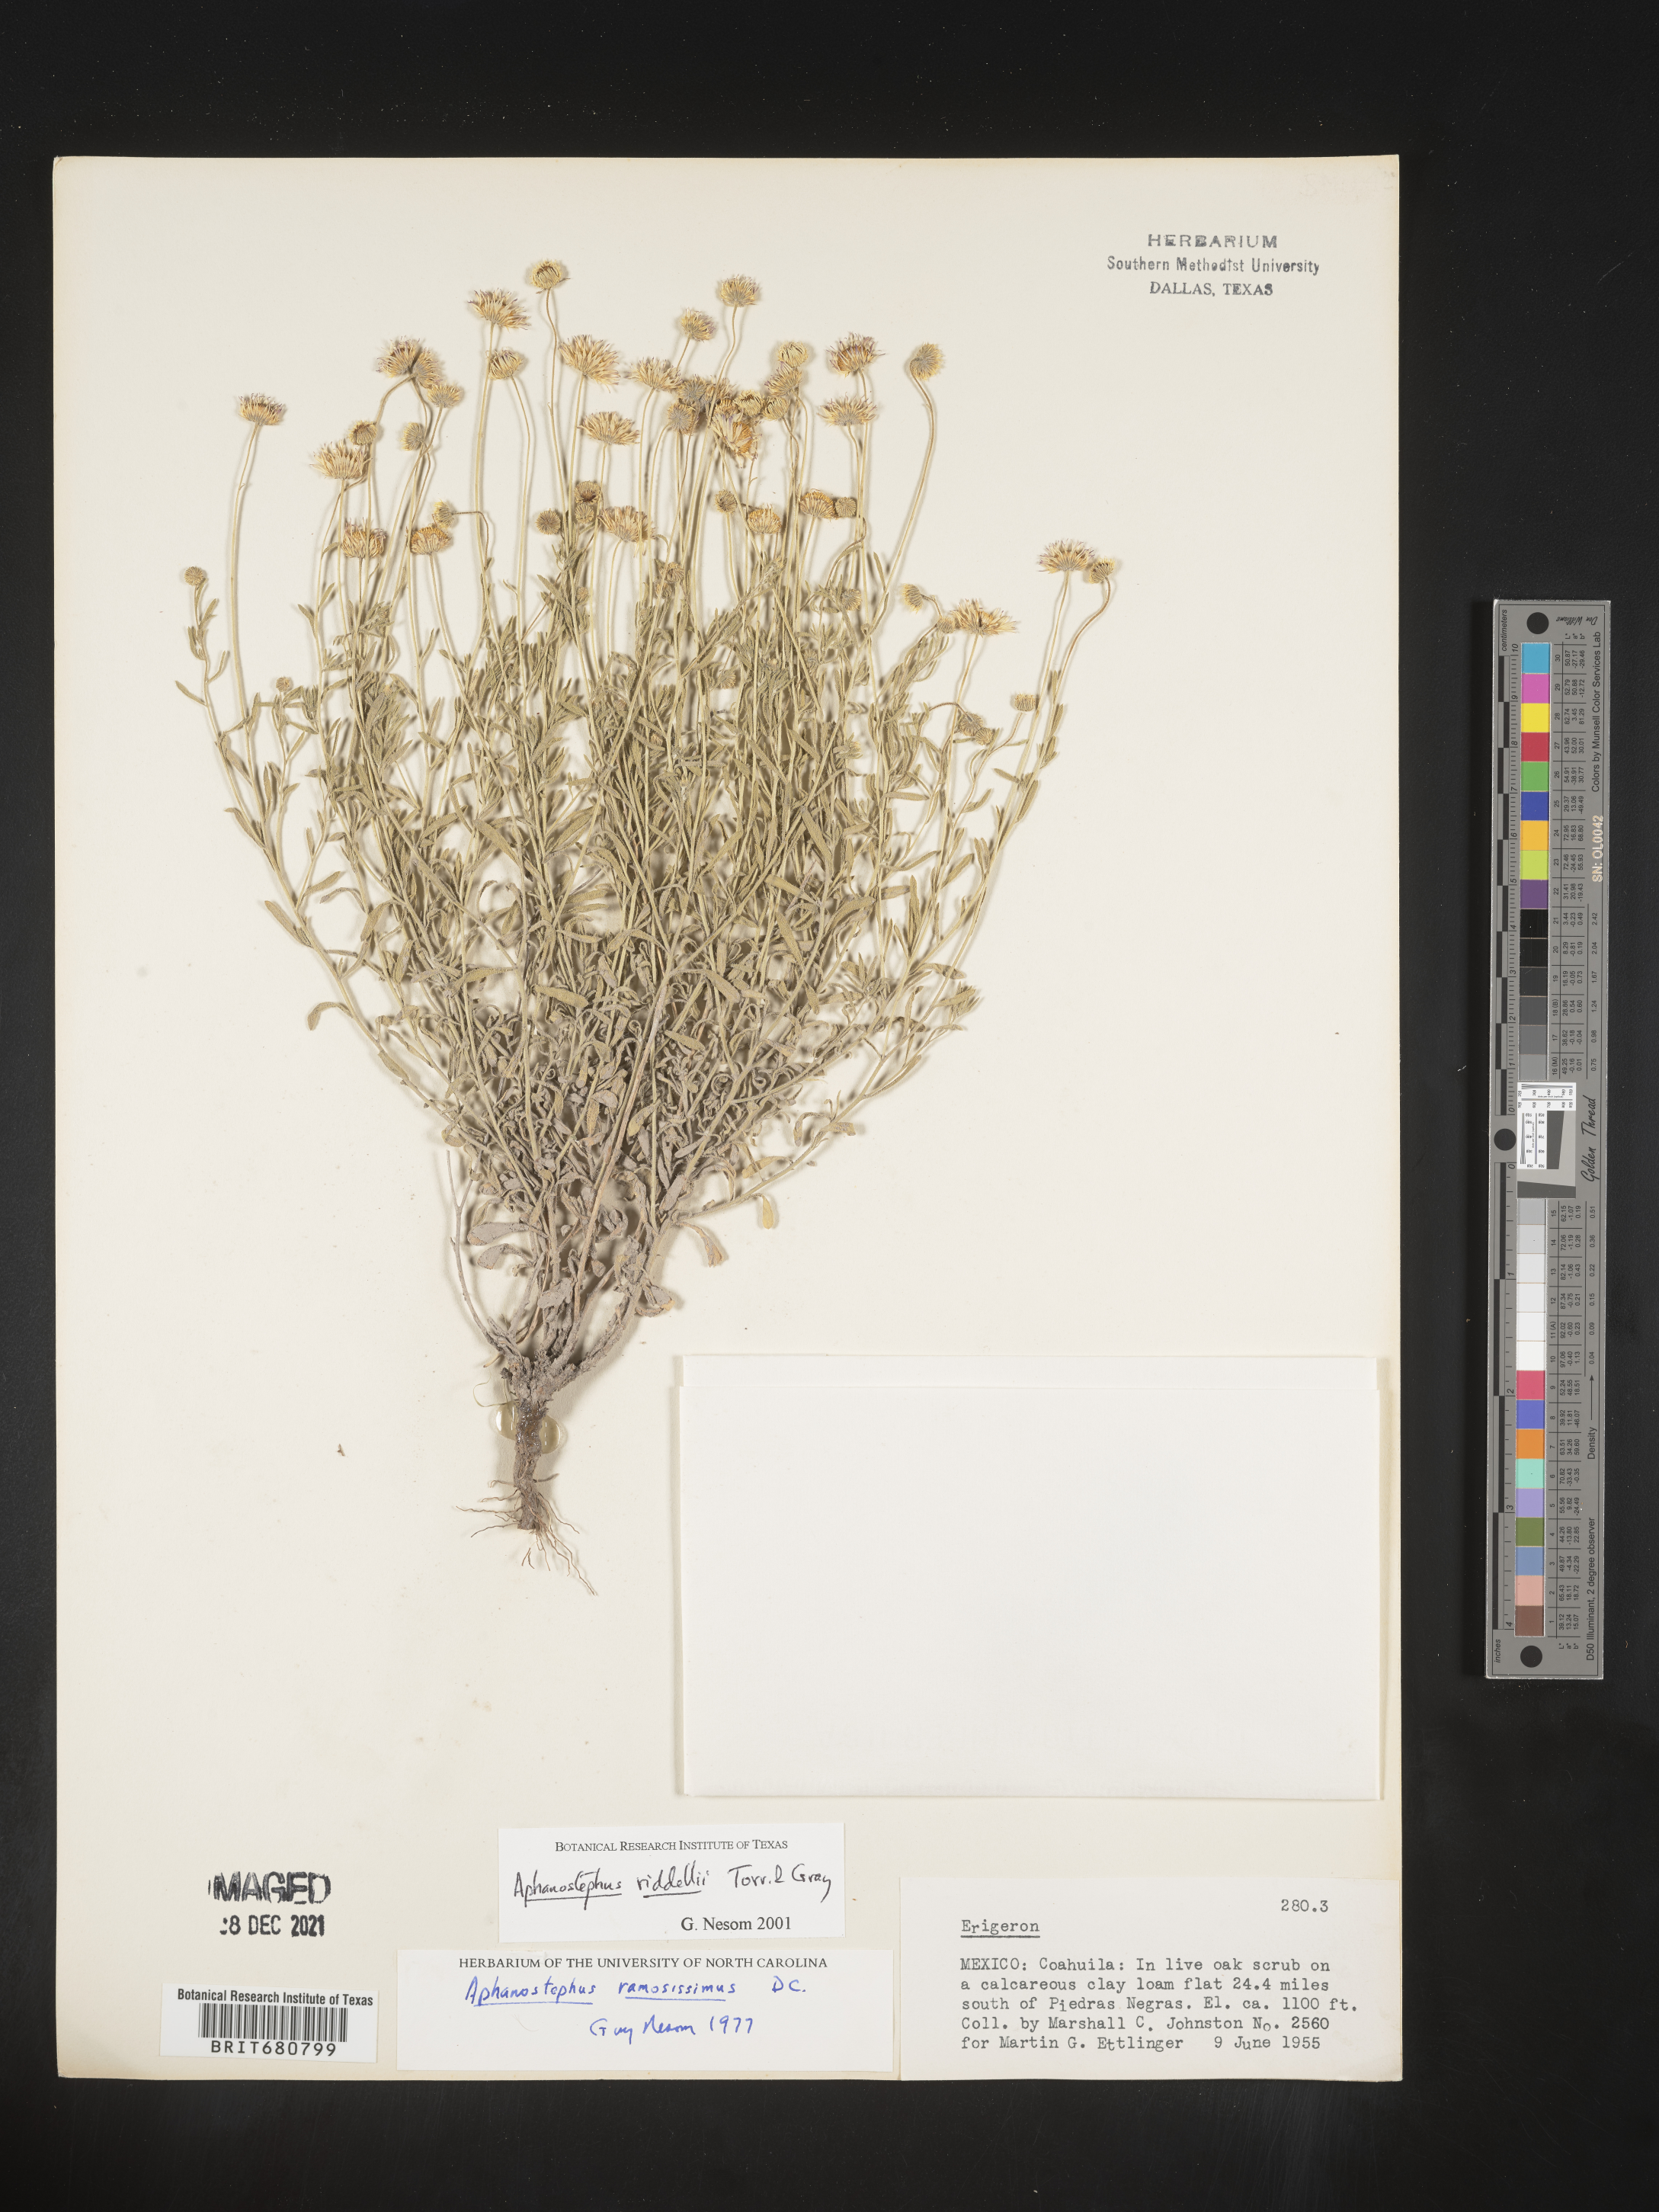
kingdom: Plantae
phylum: Tracheophyta
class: Magnoliopsida
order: Asterales
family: Asteraceae
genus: Aphanostephus
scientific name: Aphanostephus riddellii
